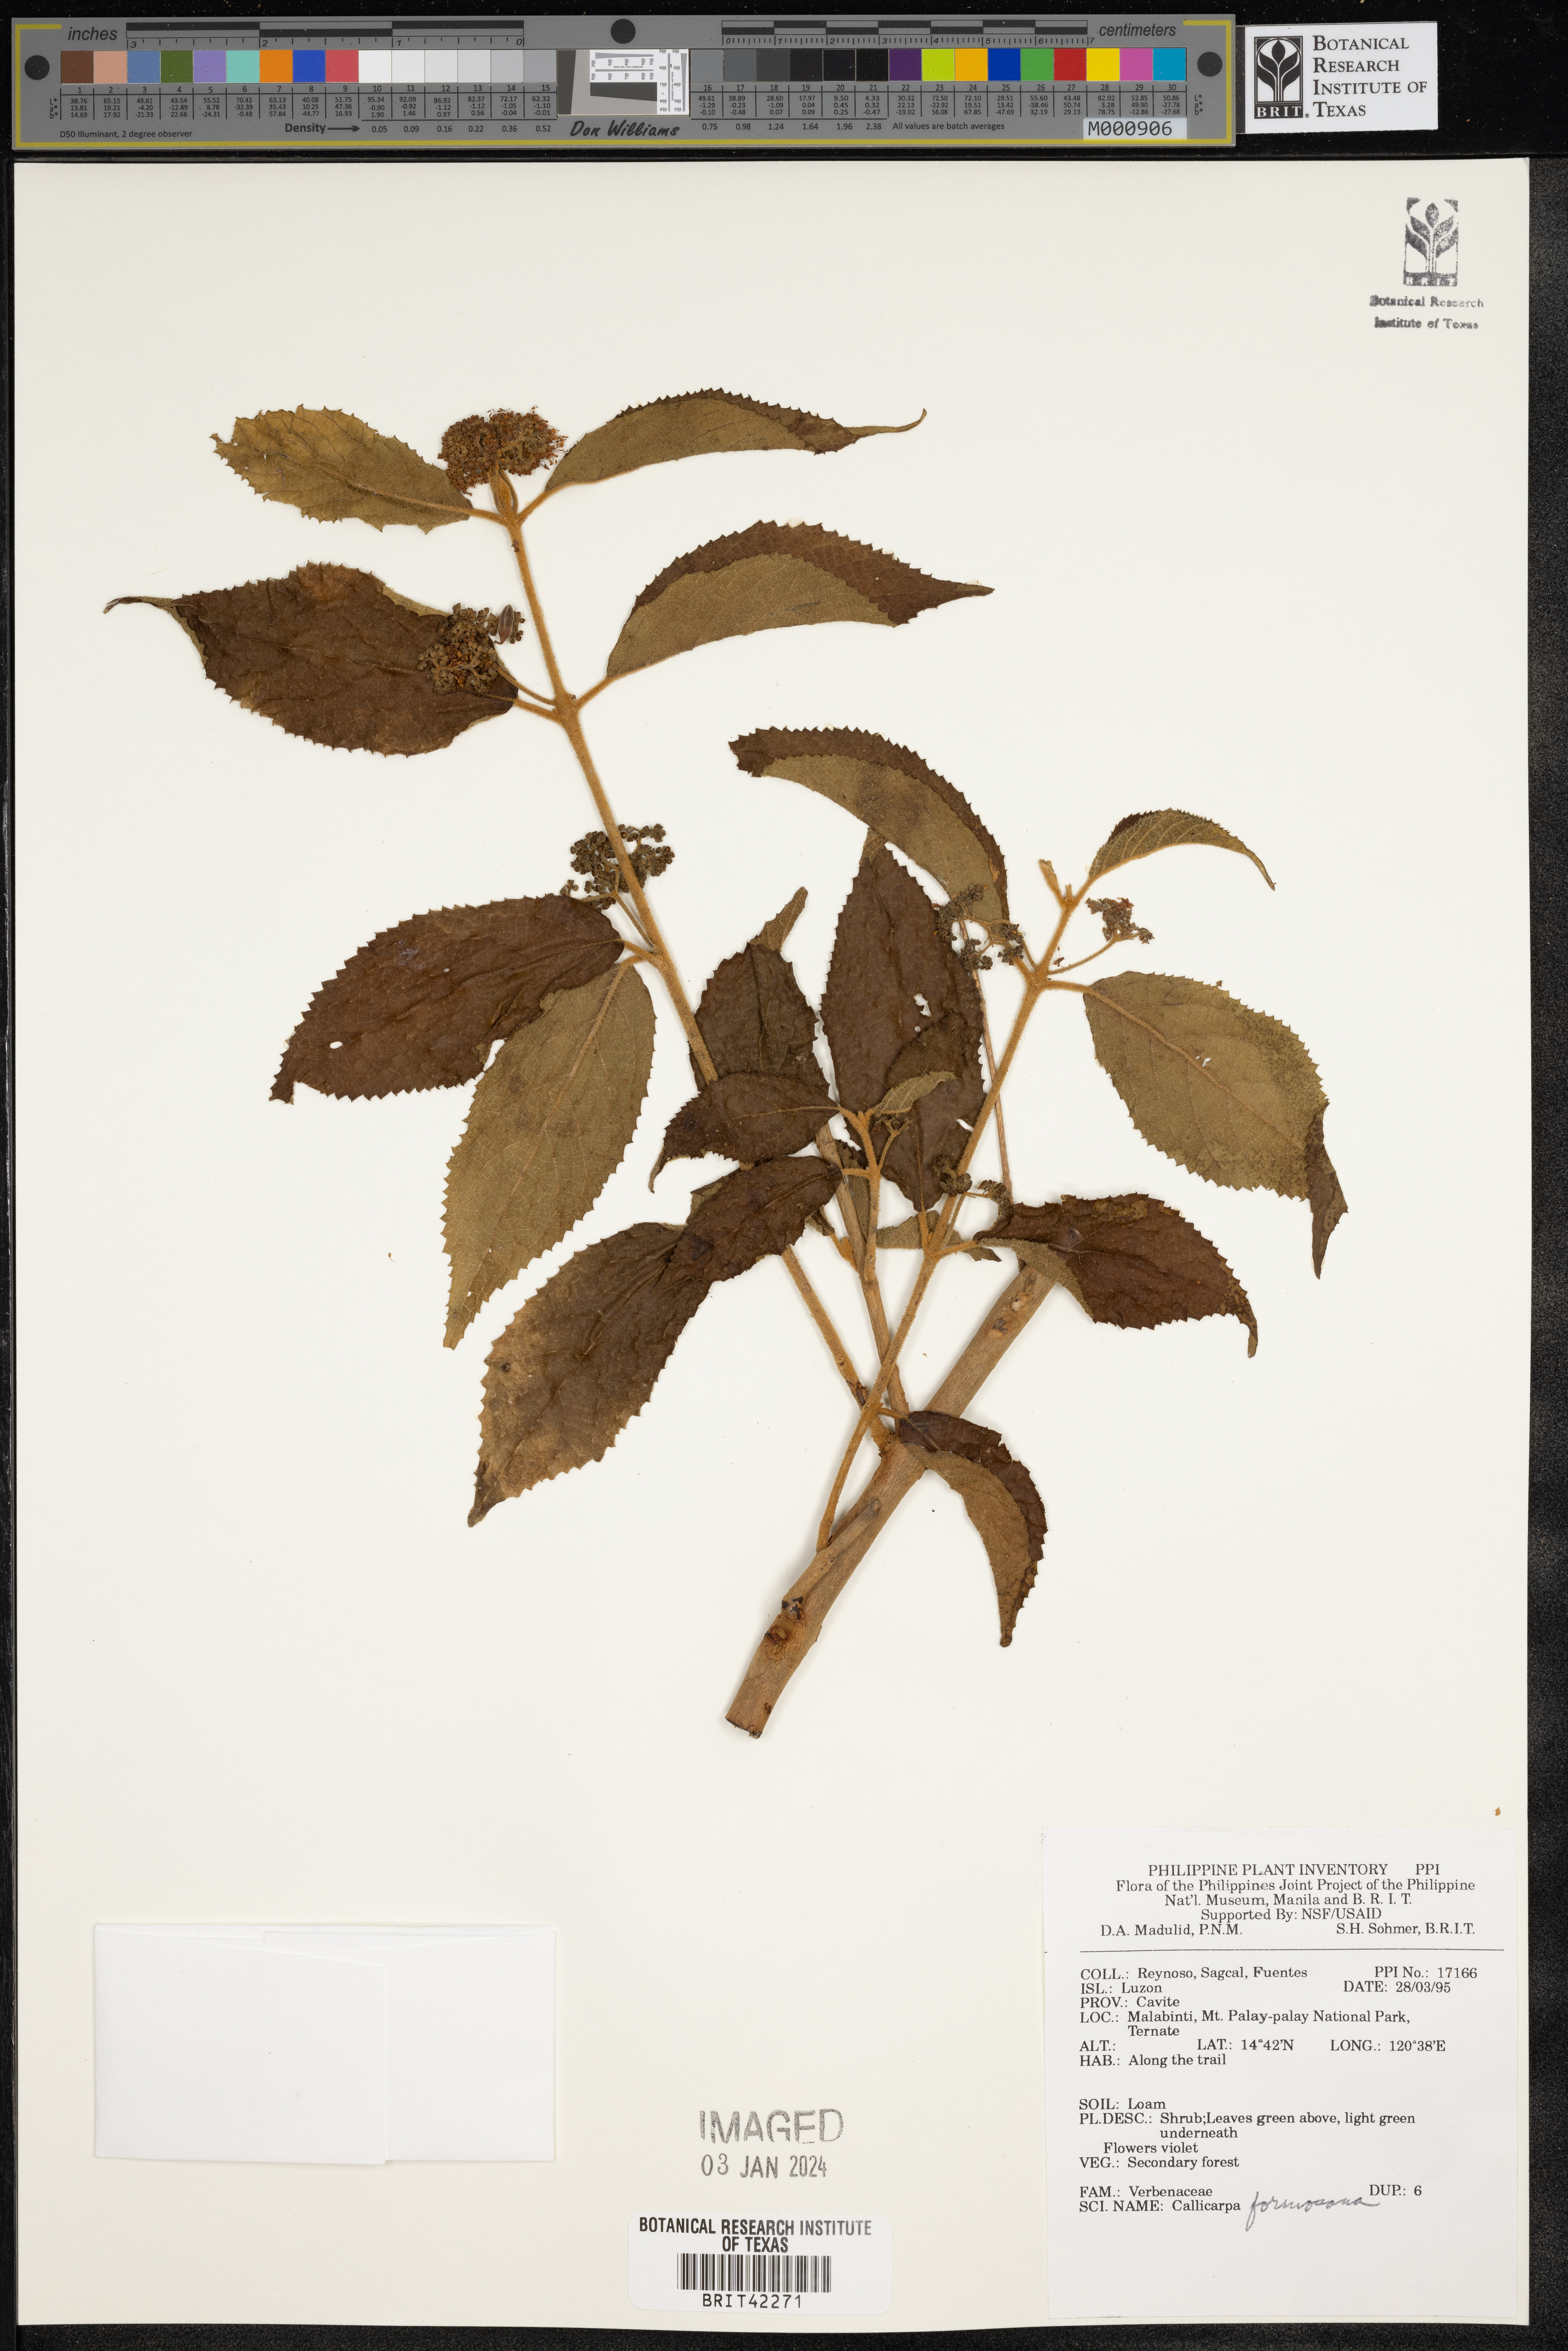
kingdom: Plantae
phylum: Tracheophyta
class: Magnoliopsida
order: Lamiales
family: Lamiaceae
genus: Callicarpa
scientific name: Callicarpa pedunculata
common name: Velvetleaf
